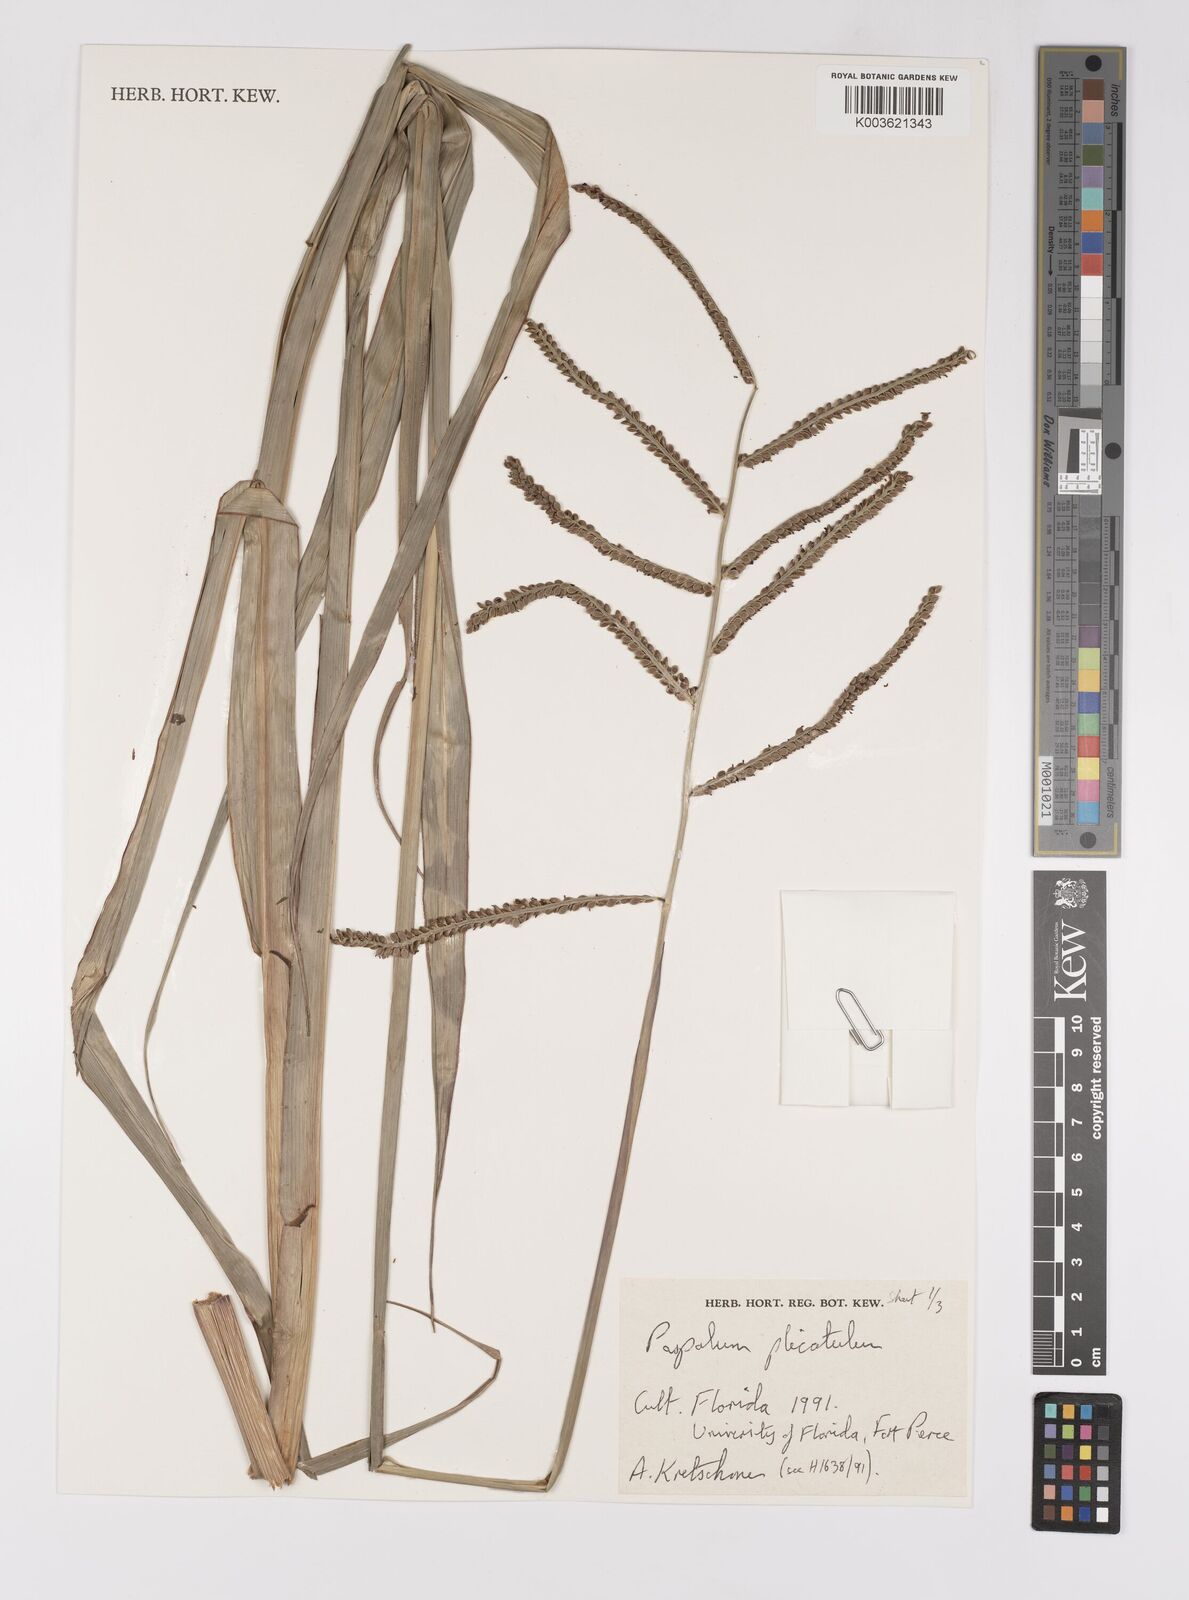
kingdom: Plantae
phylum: Tracheophyta
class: Liliopsida
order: Poales
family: Poaceae
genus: Paspalum
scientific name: Paspalum plicatulum
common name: Top paspalum
